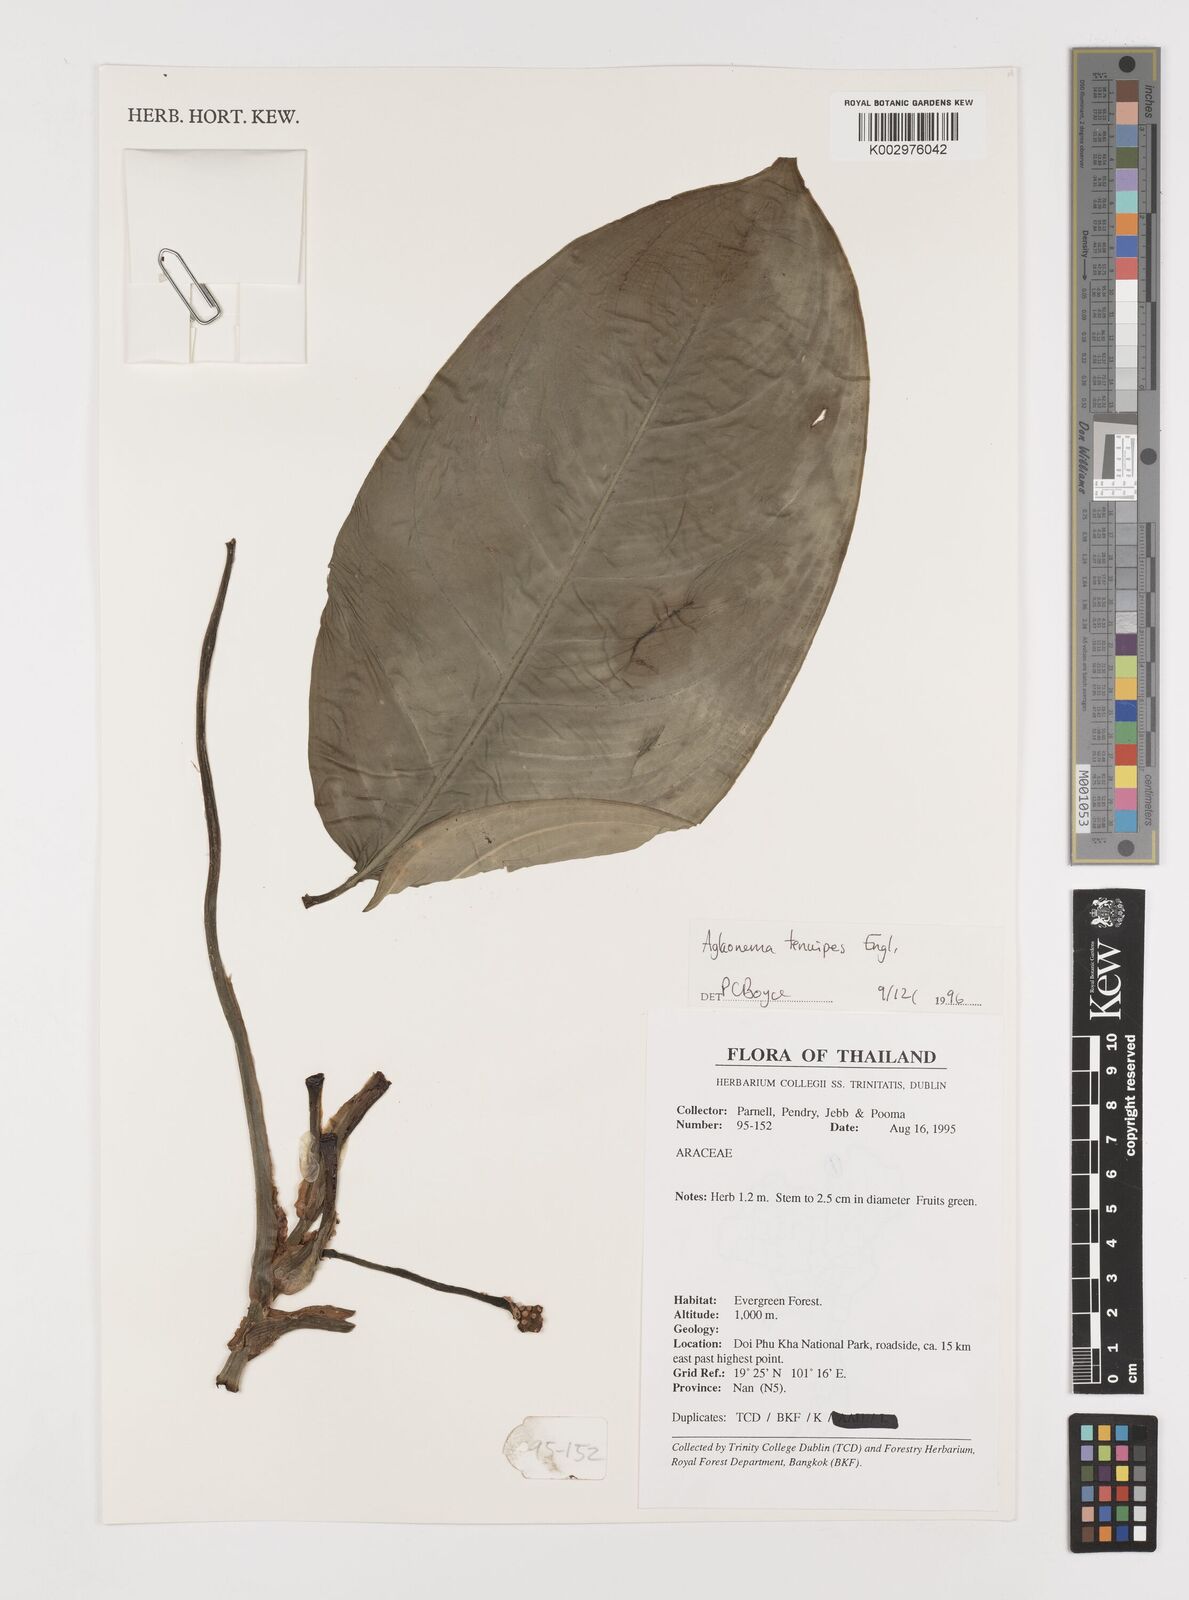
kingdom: Plantae
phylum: Tracheophyta
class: Liliopsida
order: Alismatales
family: Araceae
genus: Aglaonema
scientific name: Aglaonema simplex
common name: Malayan-sword
